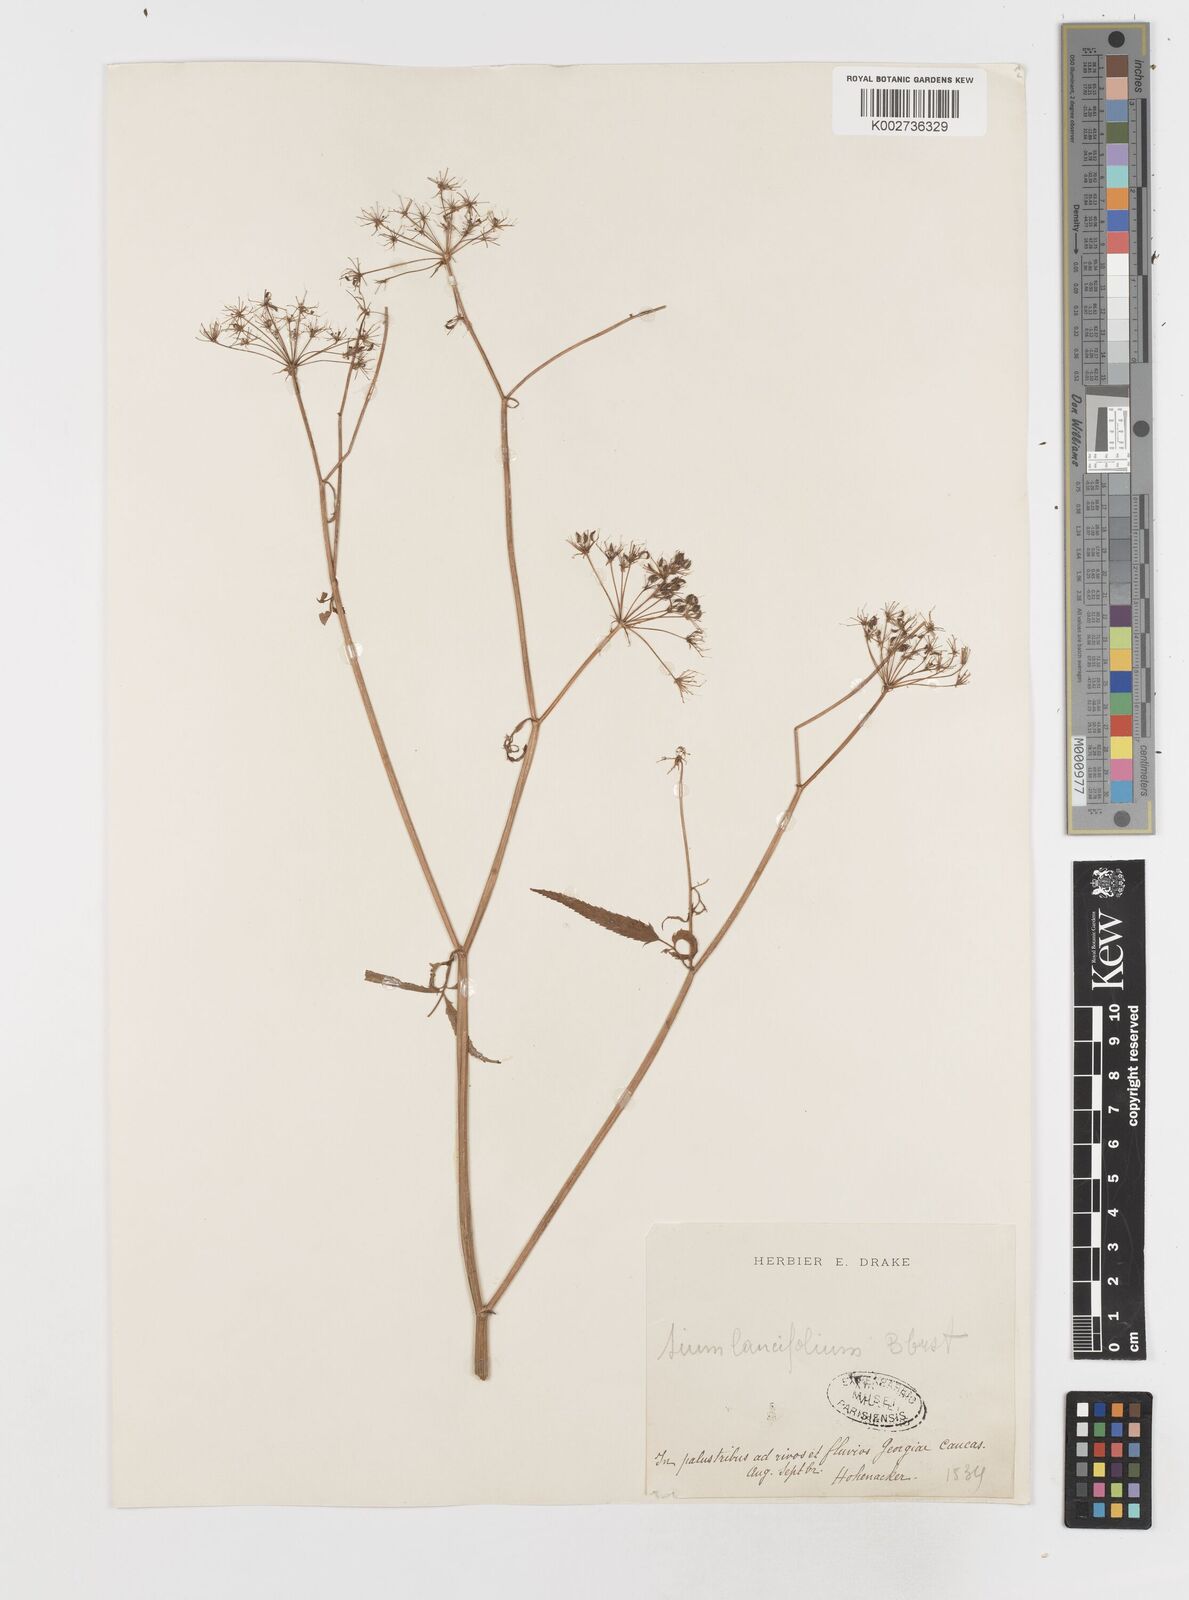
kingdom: Plantae
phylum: Tracheophyta
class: Magnoliopsida
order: Apiales
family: Apiaceae
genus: Sium
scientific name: Sium sisarum
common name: Skirret
